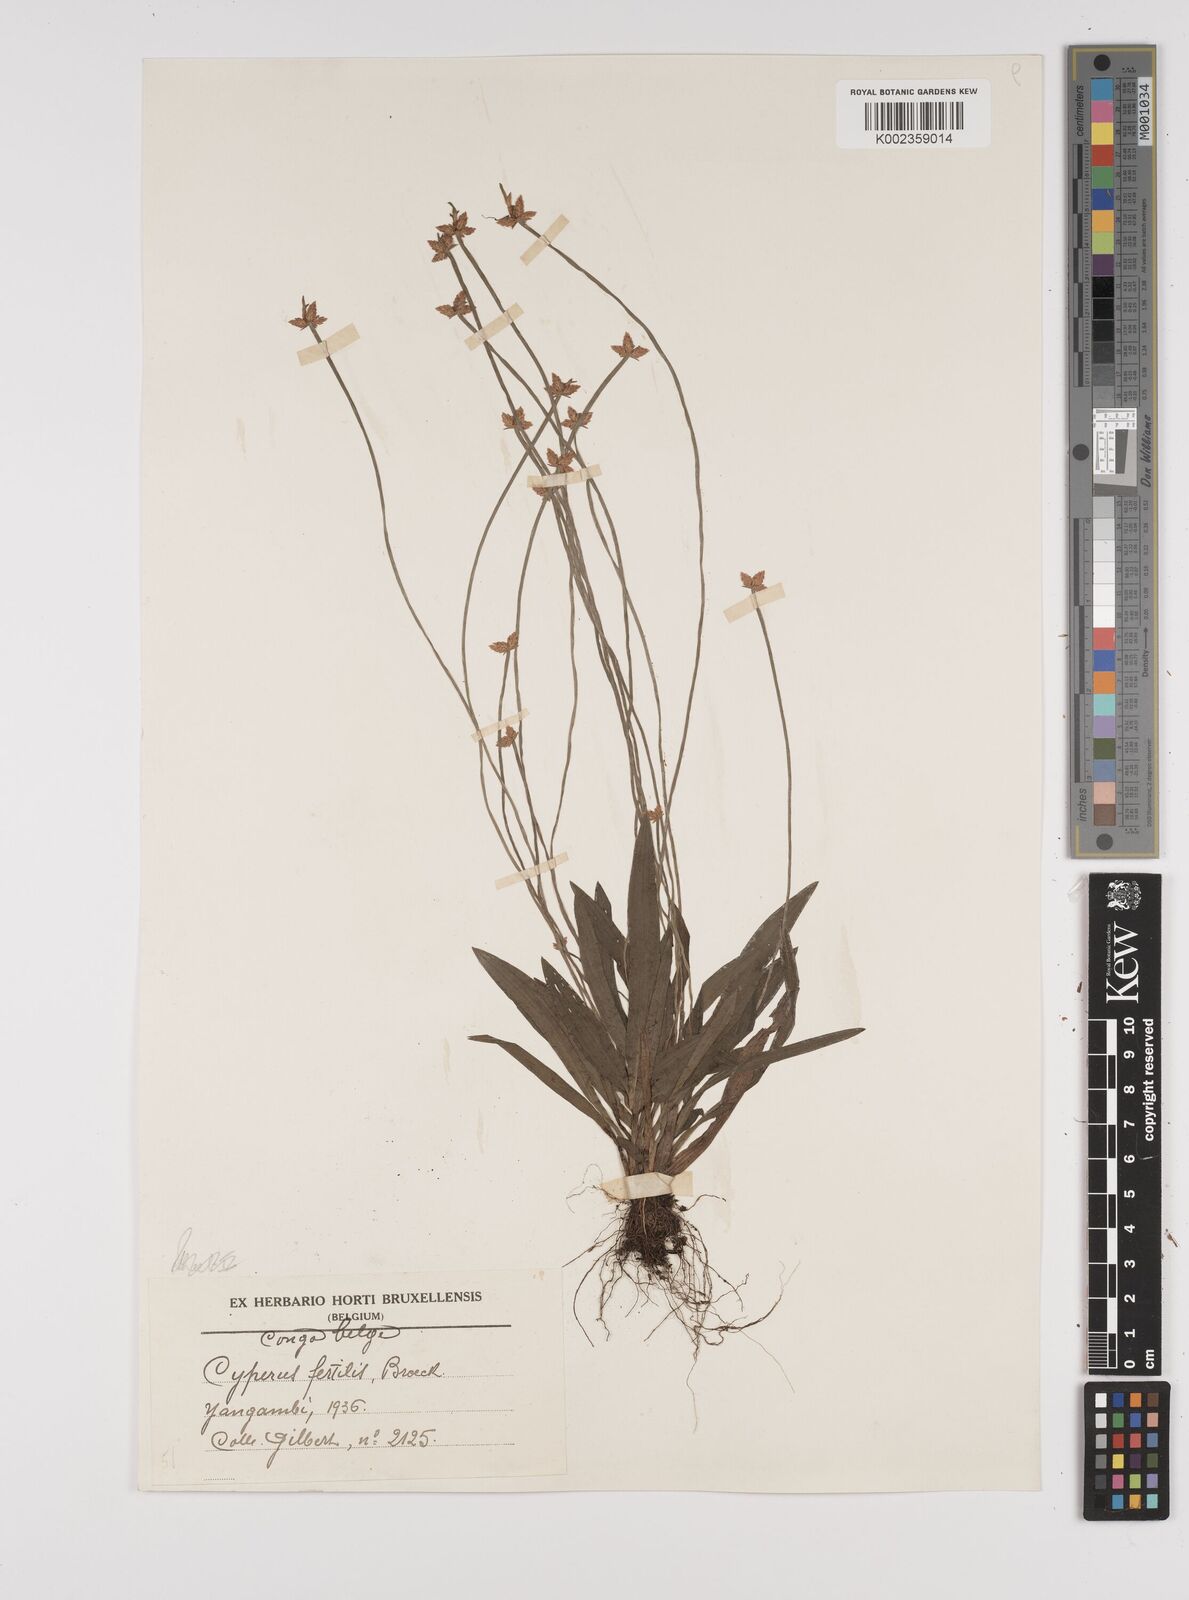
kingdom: Plantae
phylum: Tracheophyta
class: Liliopsida
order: Poales
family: Cyperaceae
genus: Cyperus
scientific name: Cyperus fertilis
